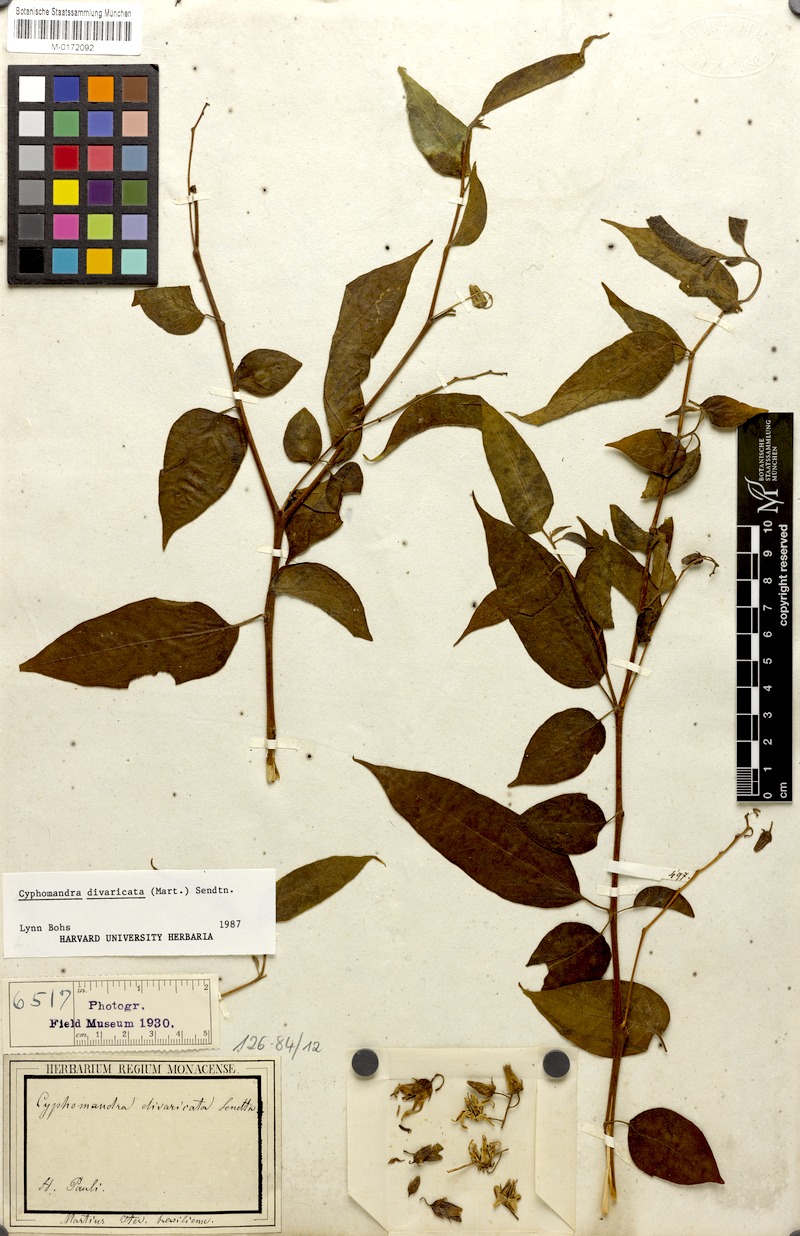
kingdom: Plantae
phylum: Tracheophyta
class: Magnoliopsida
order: Solanales
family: Solanaceae
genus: Solanum
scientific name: Solanum melissarum
